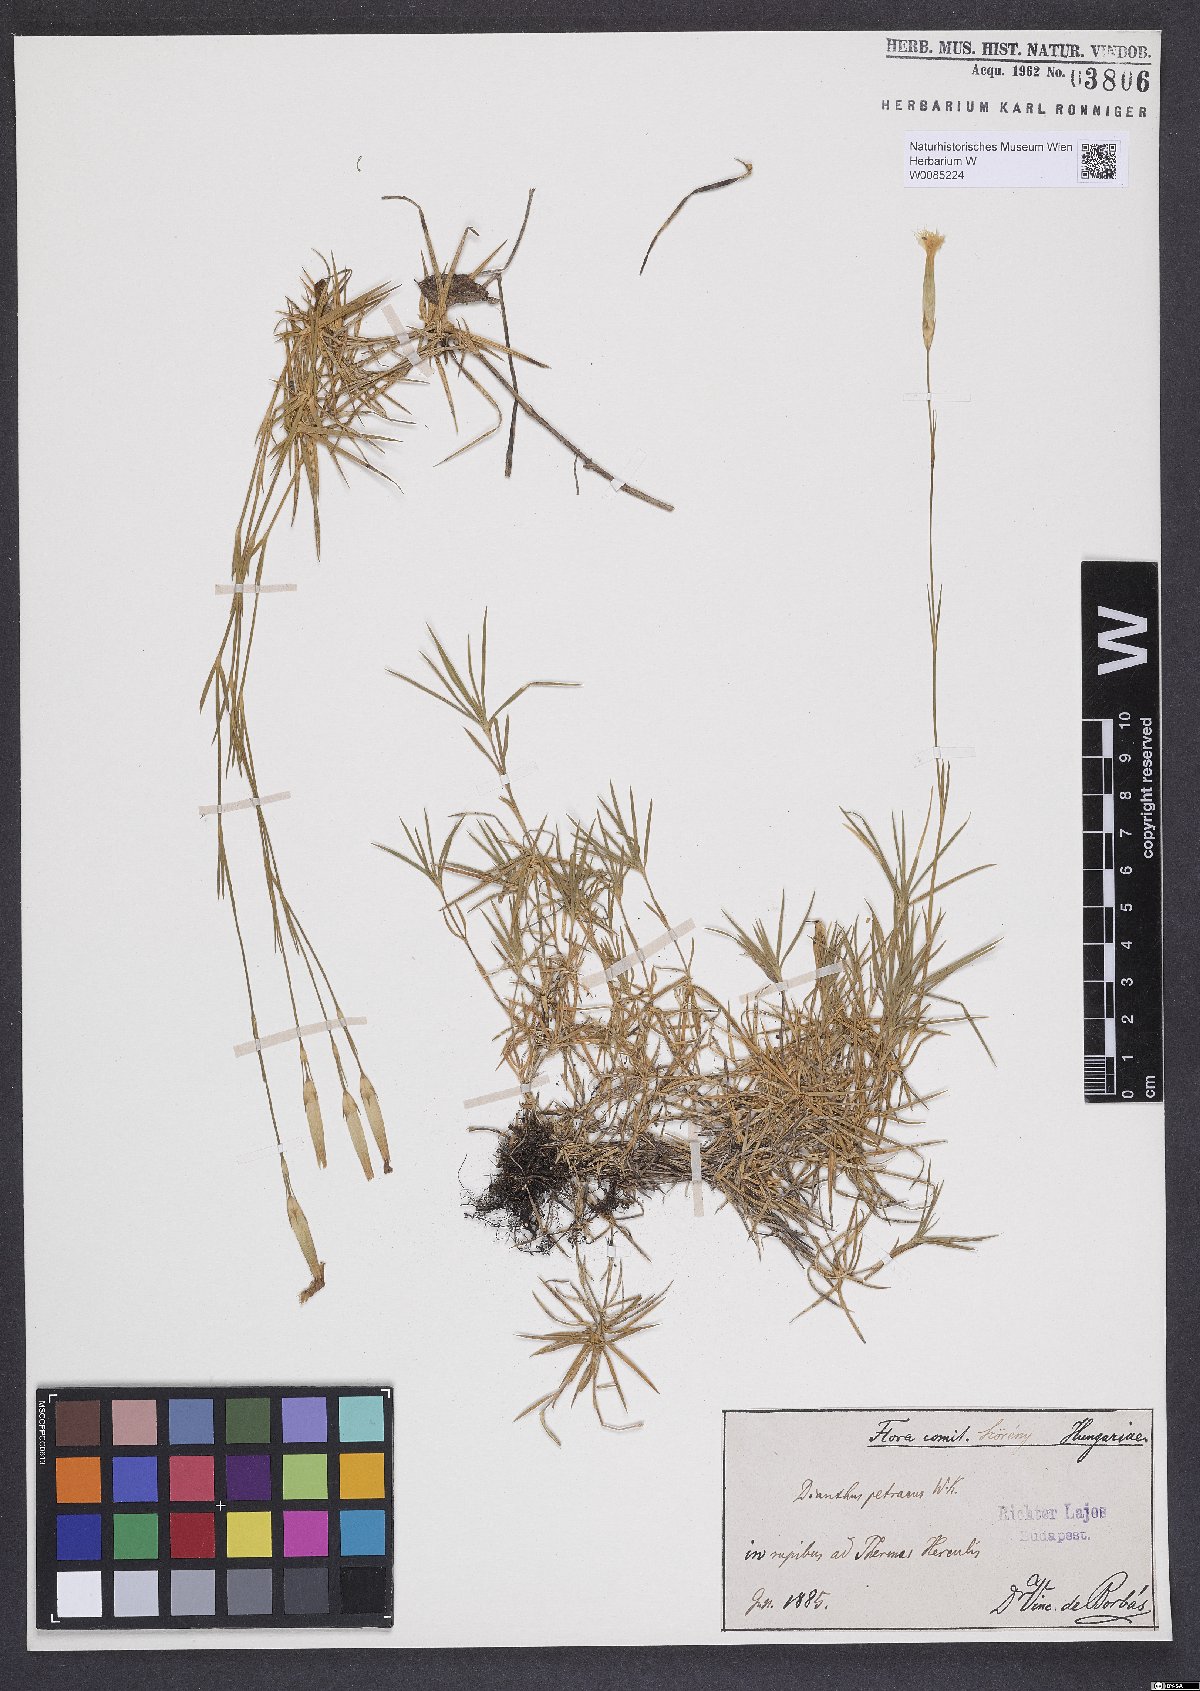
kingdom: Plantae
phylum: Tracheophyta
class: Magnoliopsida
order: Caryophyllales
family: Caryophyllaceae
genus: Dianthus
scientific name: Dianthus petraeus
